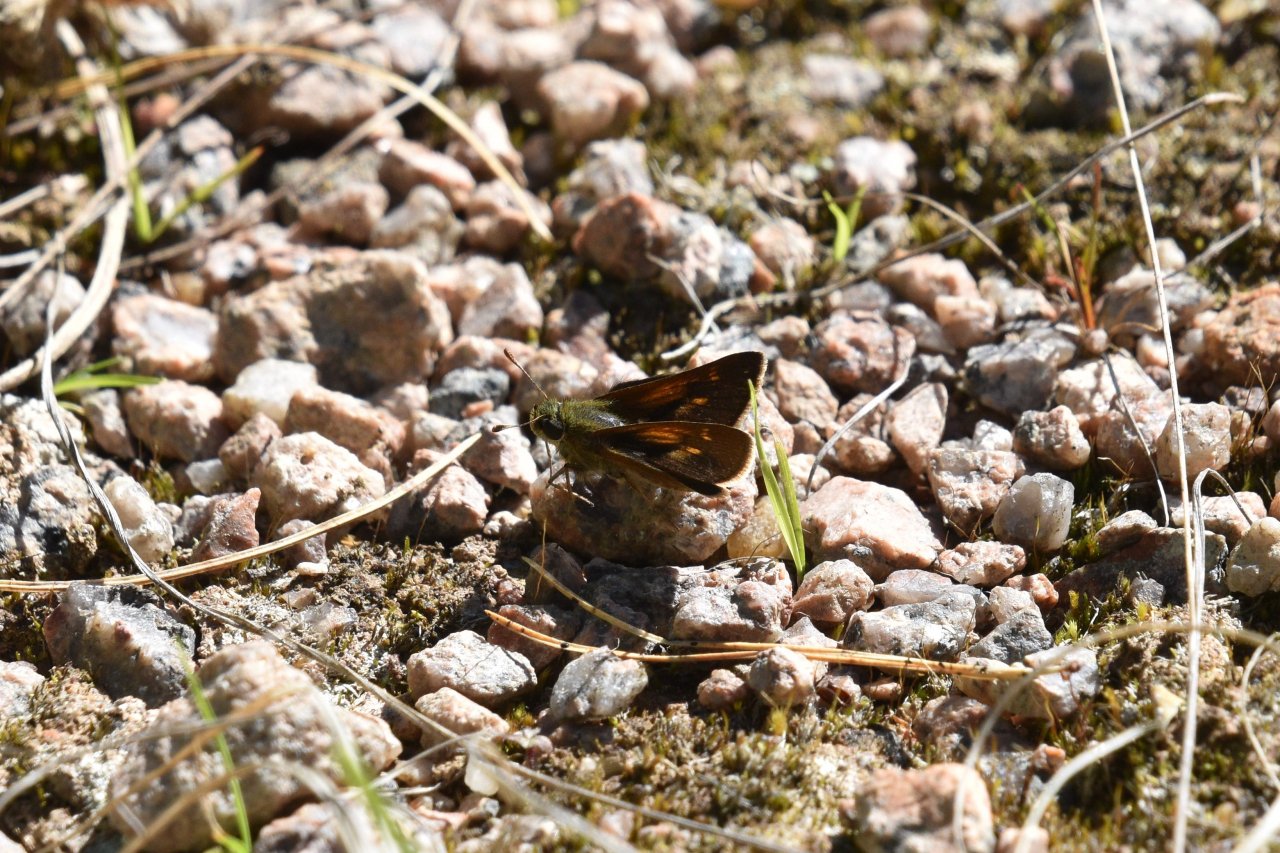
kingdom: Animalia
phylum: Arthropoda
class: Insecta
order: Lepidoptera
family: Hesperiidae
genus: Polites
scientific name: Polites themistocles
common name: Tawny-edged Skipper
